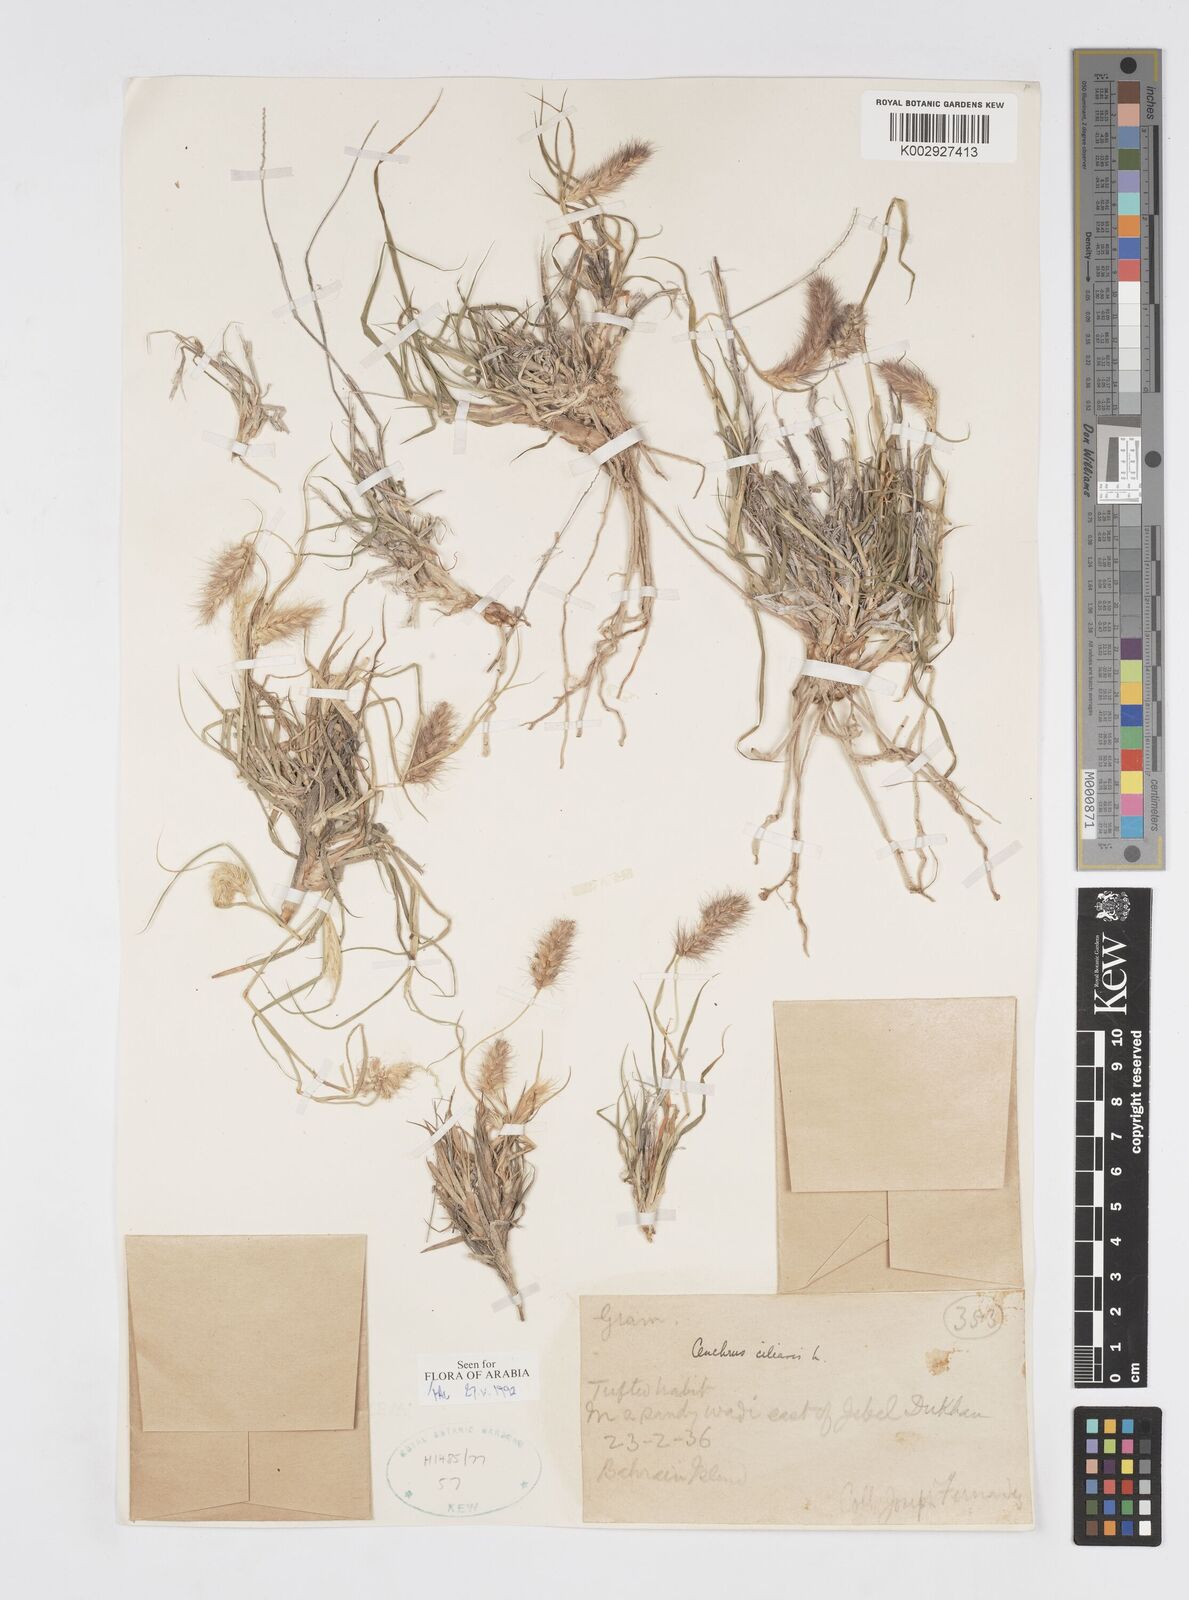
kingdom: Plantae
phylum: Tracheophyta
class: Liliopsida
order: Poales
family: Poaceae
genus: Cenchrus
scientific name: Cenchrus ciliaris
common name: Buffelgrass
